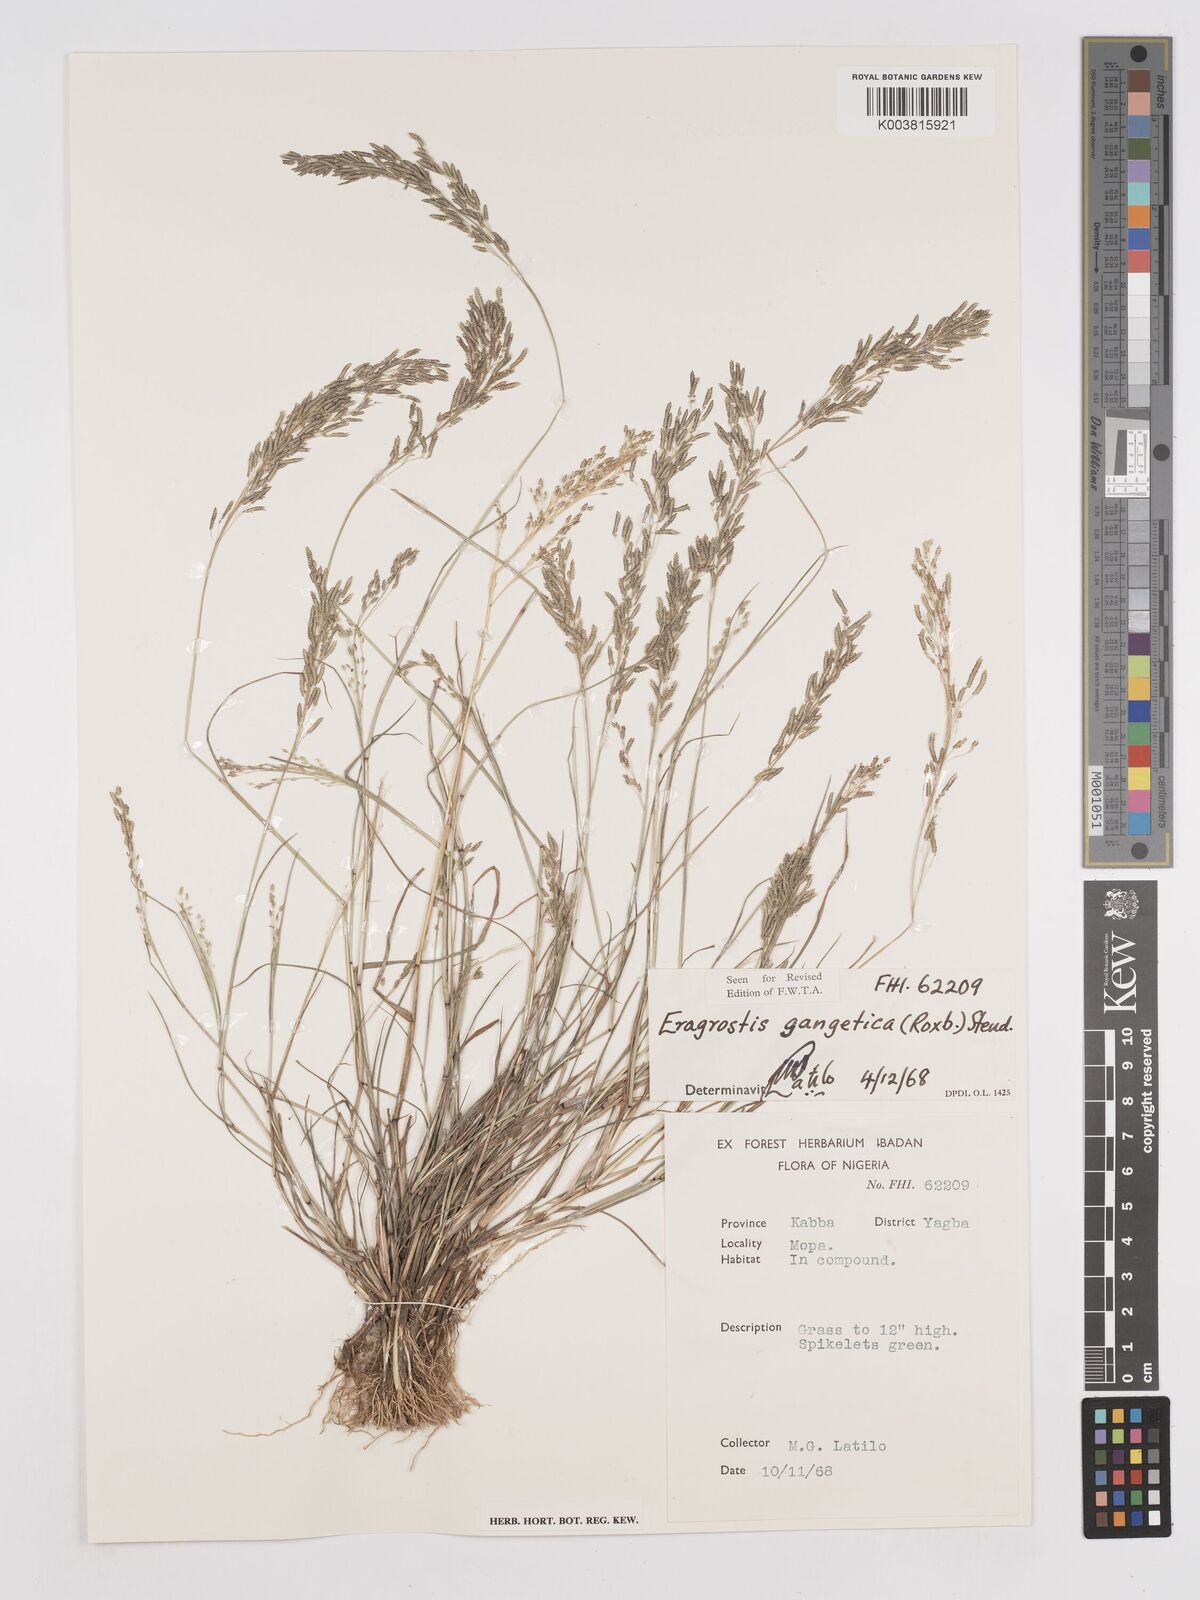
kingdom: Plantae
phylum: Tracheophyta
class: Liliopsida
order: Poales
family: Poaceae
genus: Eragrostis
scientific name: Eragrostis gangetica
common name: Slimflower lovegrass
